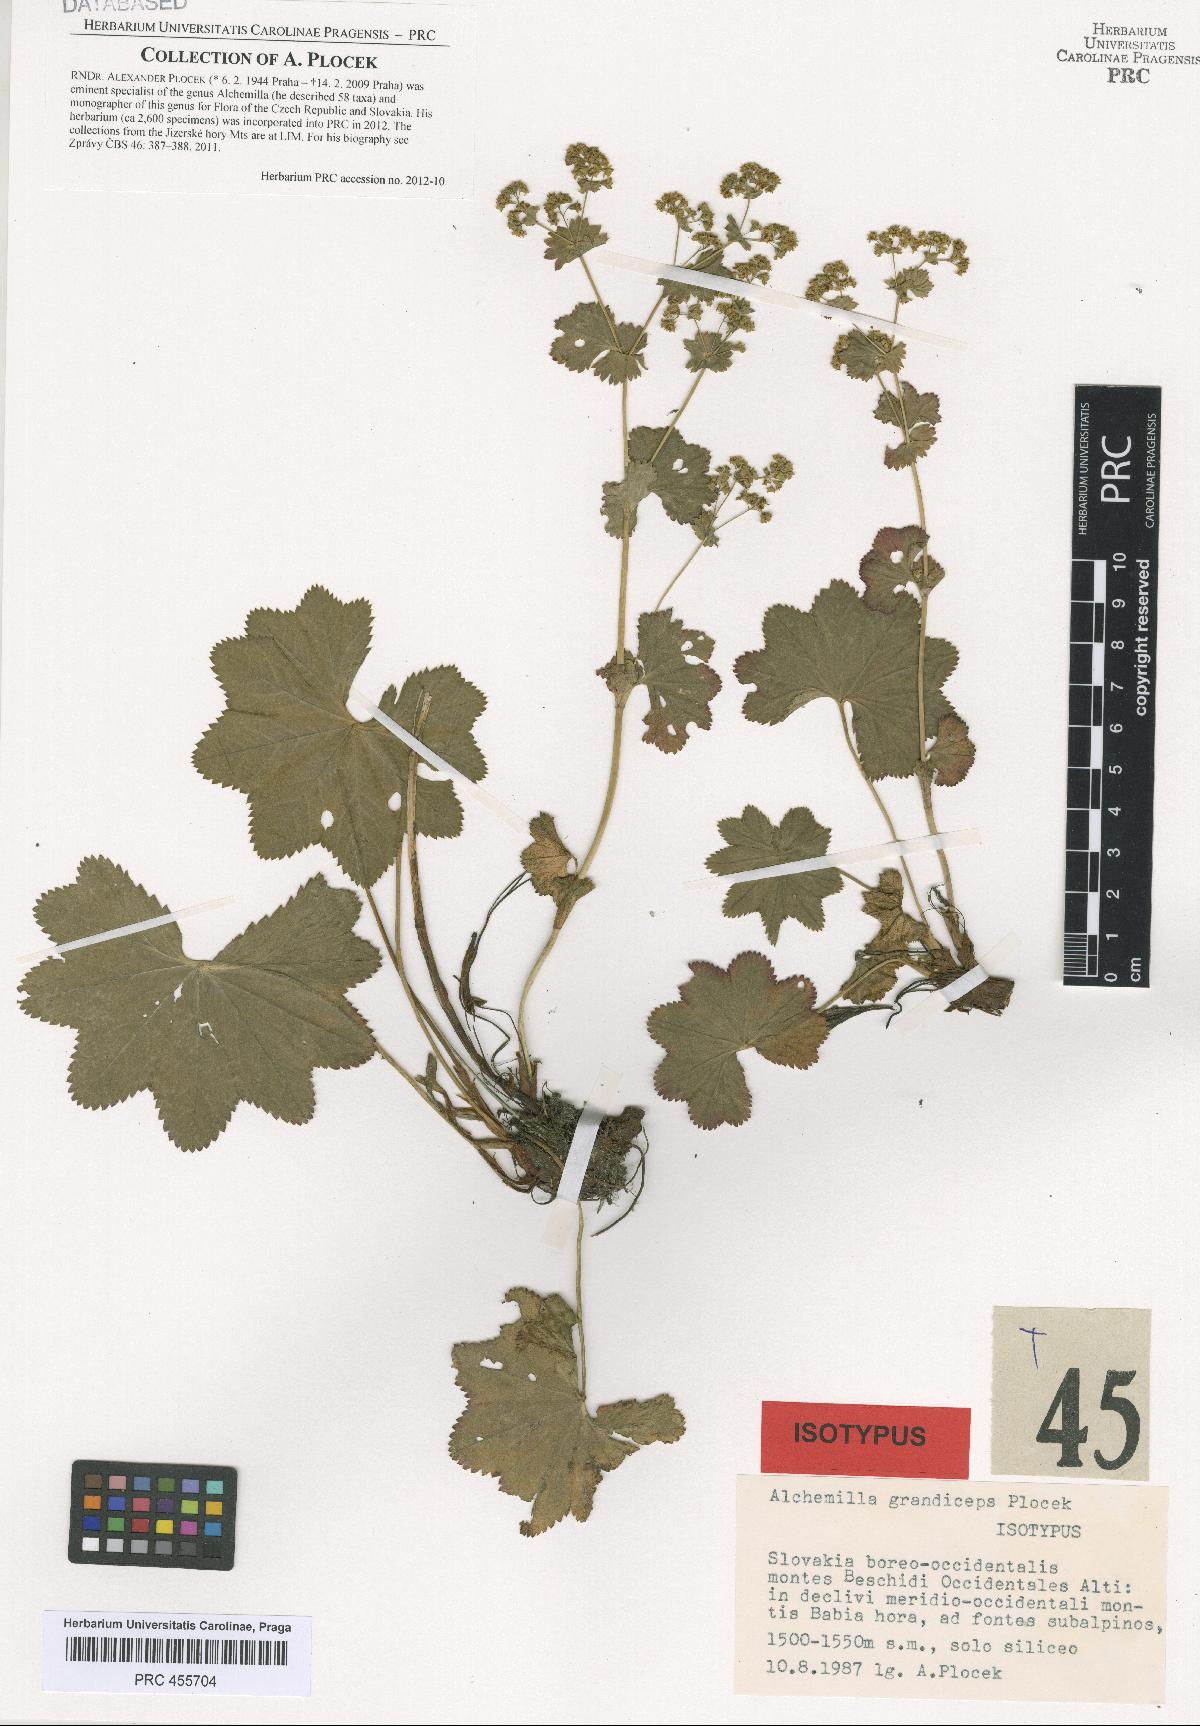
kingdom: Plantae
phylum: Tracheophyta
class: Magnoliopsida
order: Rosales
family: Rosaceae
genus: Alchemilla
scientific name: Alchemilla grandiceps
